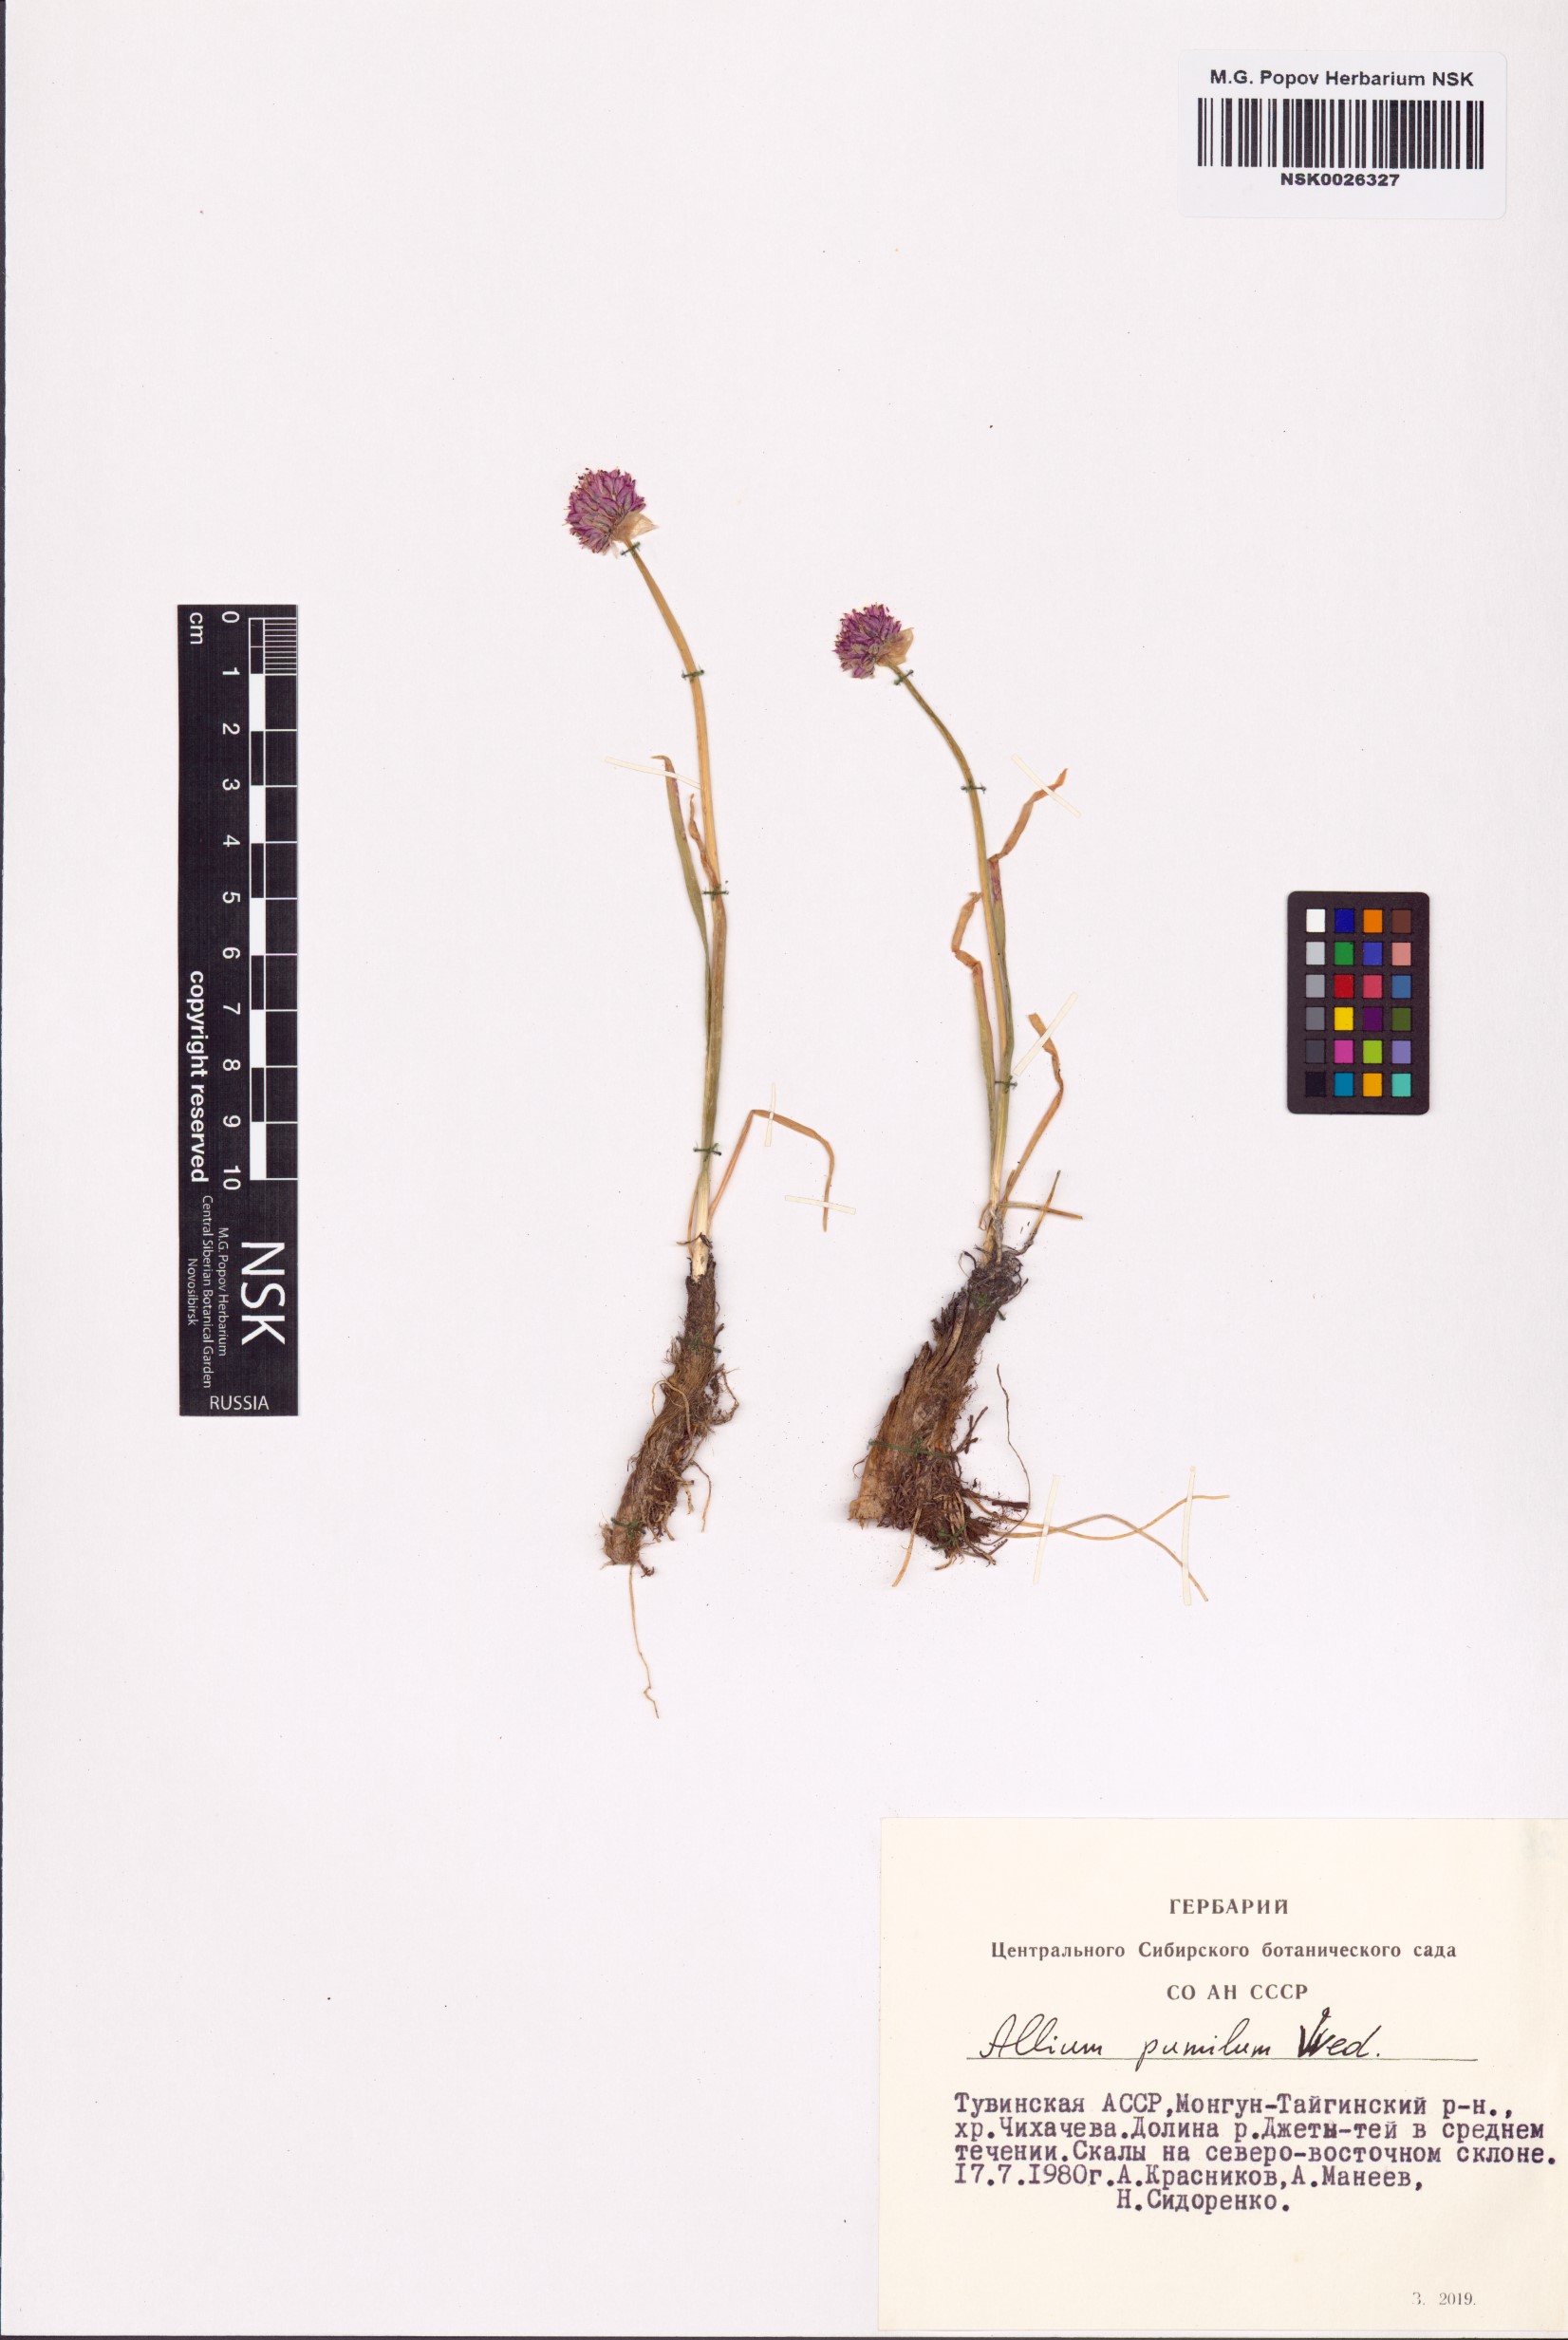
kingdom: Plantae
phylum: Tracheophyta
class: Liliopsida
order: Asparagales
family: Amaryllidaceae
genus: Allium
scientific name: Allium pumilum
